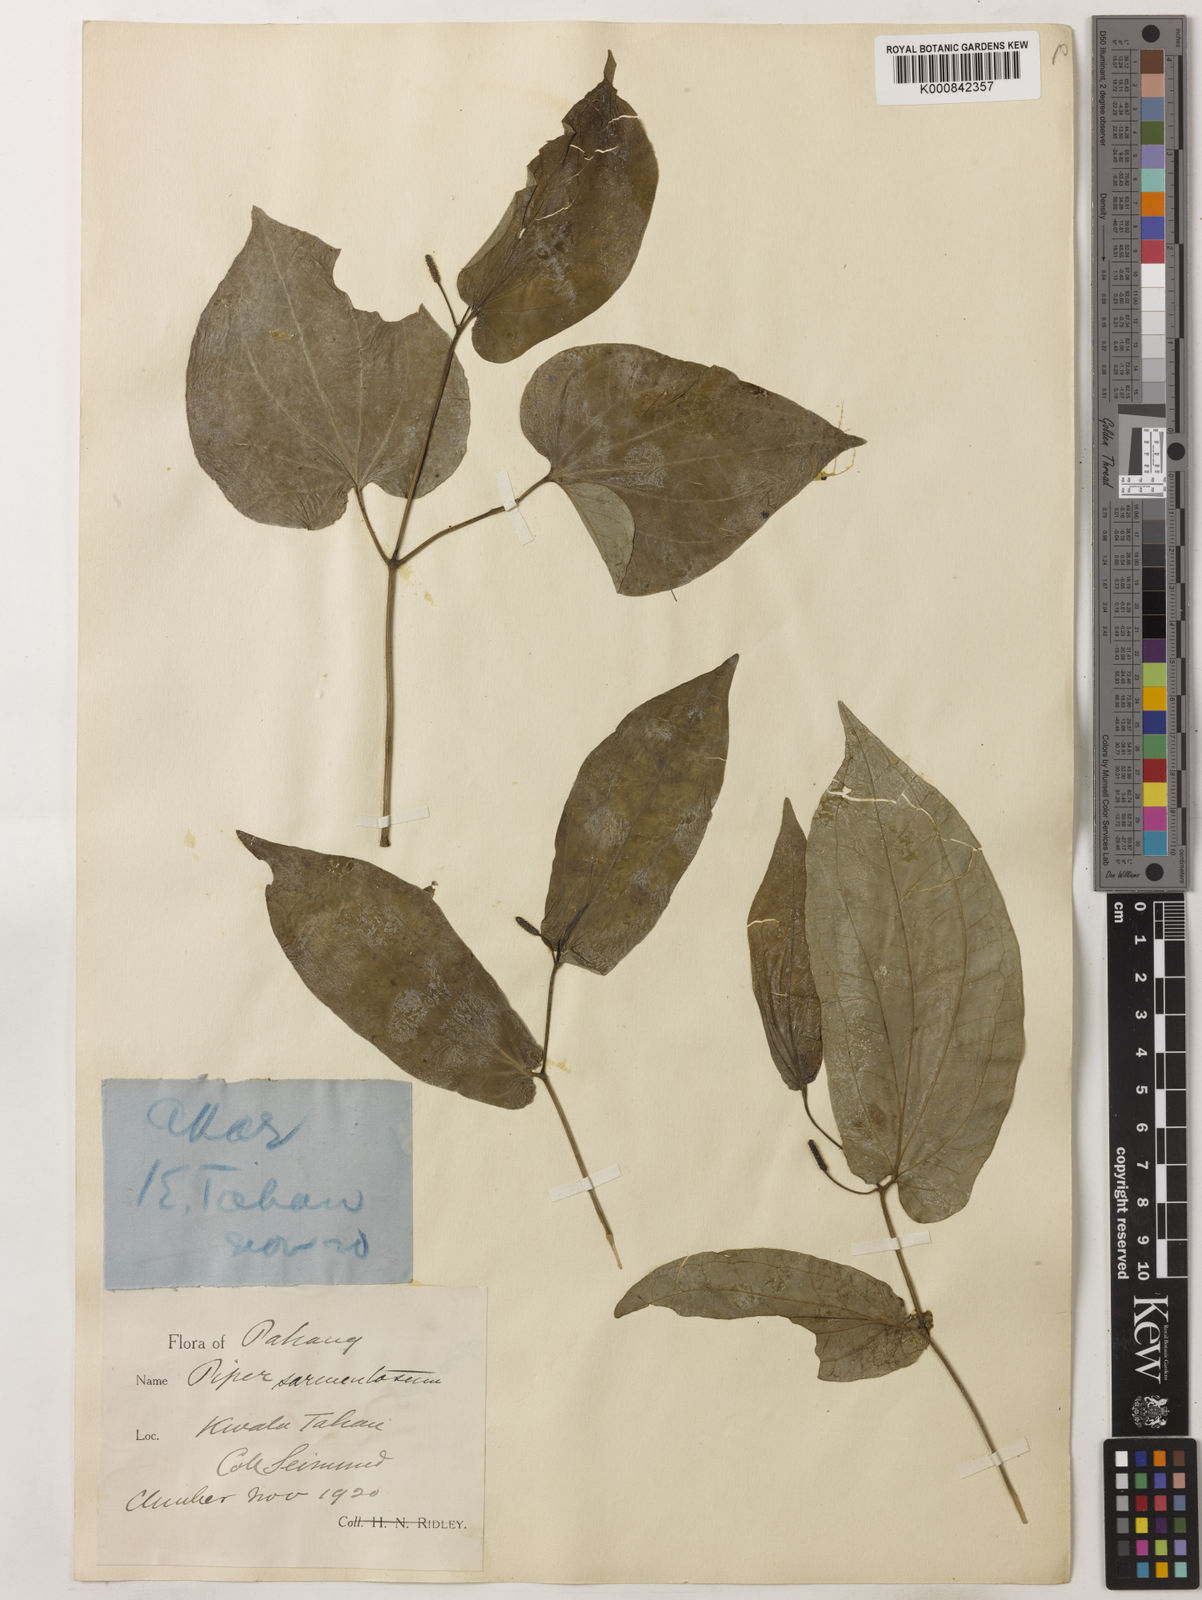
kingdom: Plantae
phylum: Tracheophyta
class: Magnoliopsida
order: Piperales
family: Piperaceae
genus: Piper
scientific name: Piper sarmentosum
